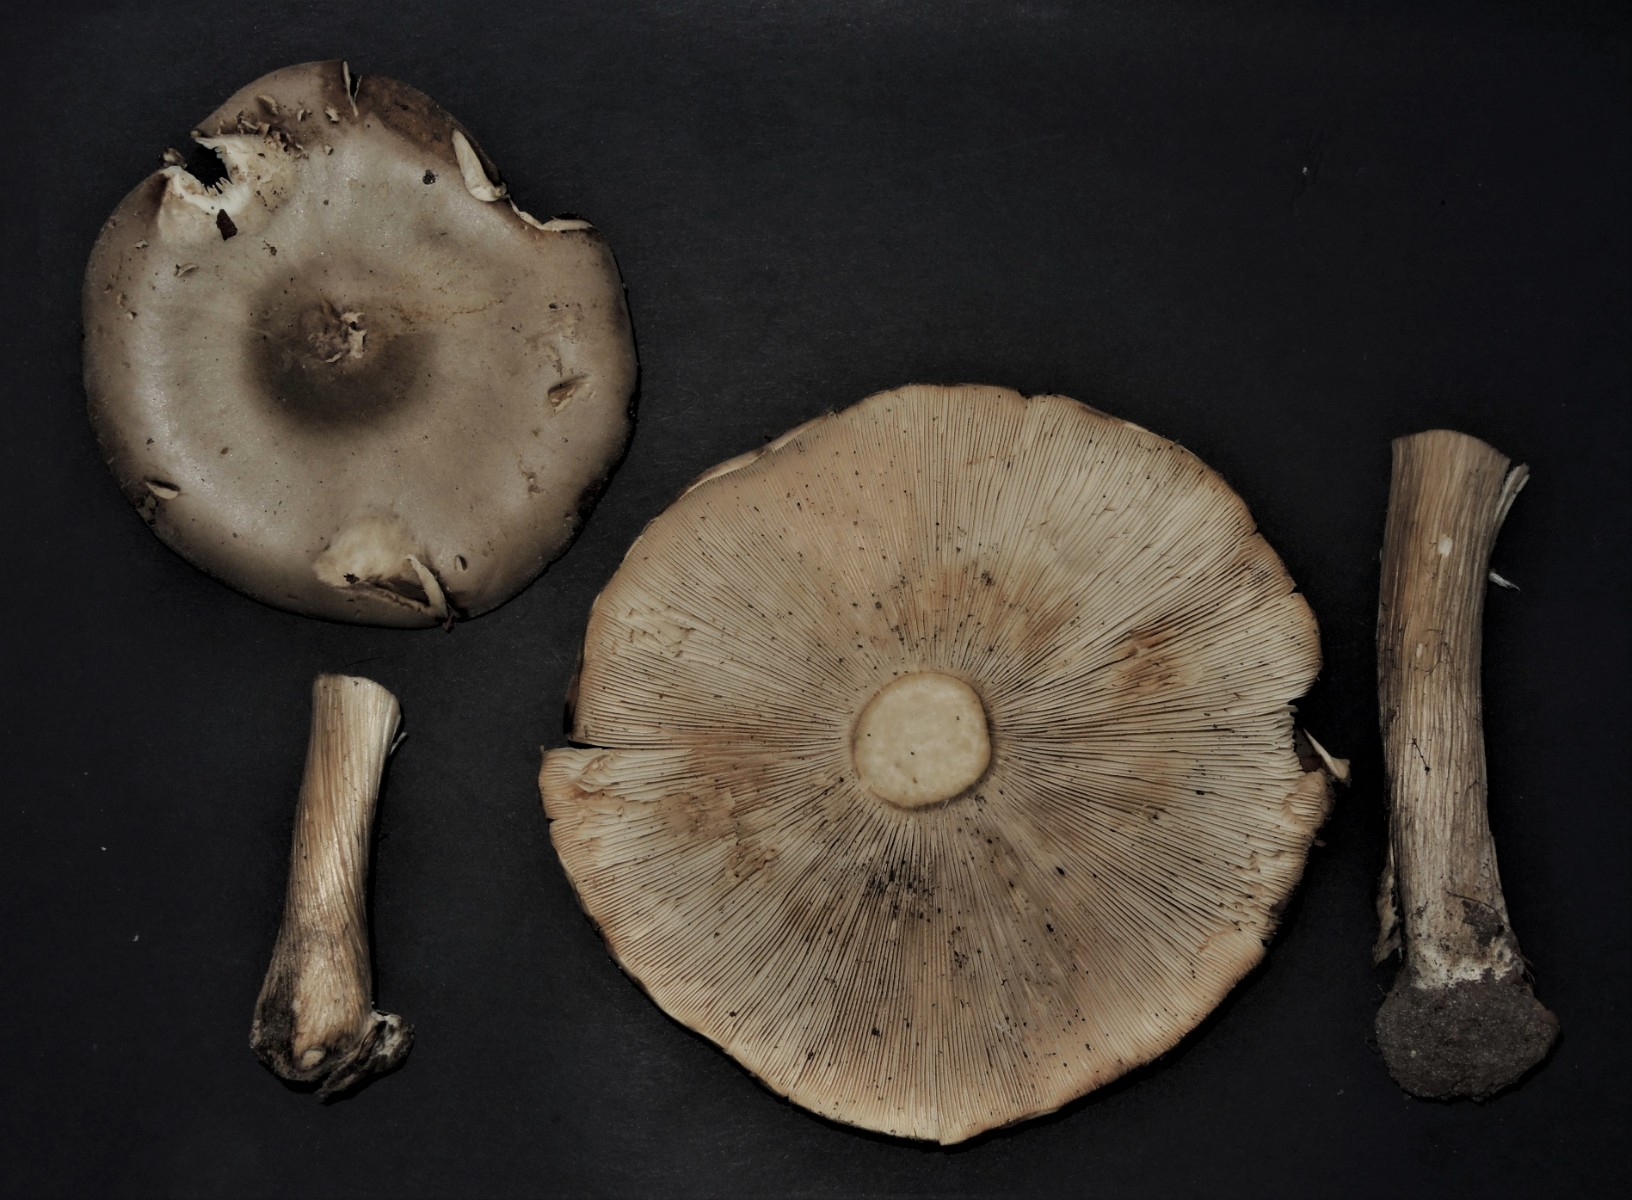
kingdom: Fungi
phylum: Basidiomycota
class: Agaricomycetes
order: Agaricales
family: Tricholomataceae
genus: Melanoleuca
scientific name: Melanoleuca grammopodia
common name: stribestokket munkehat
